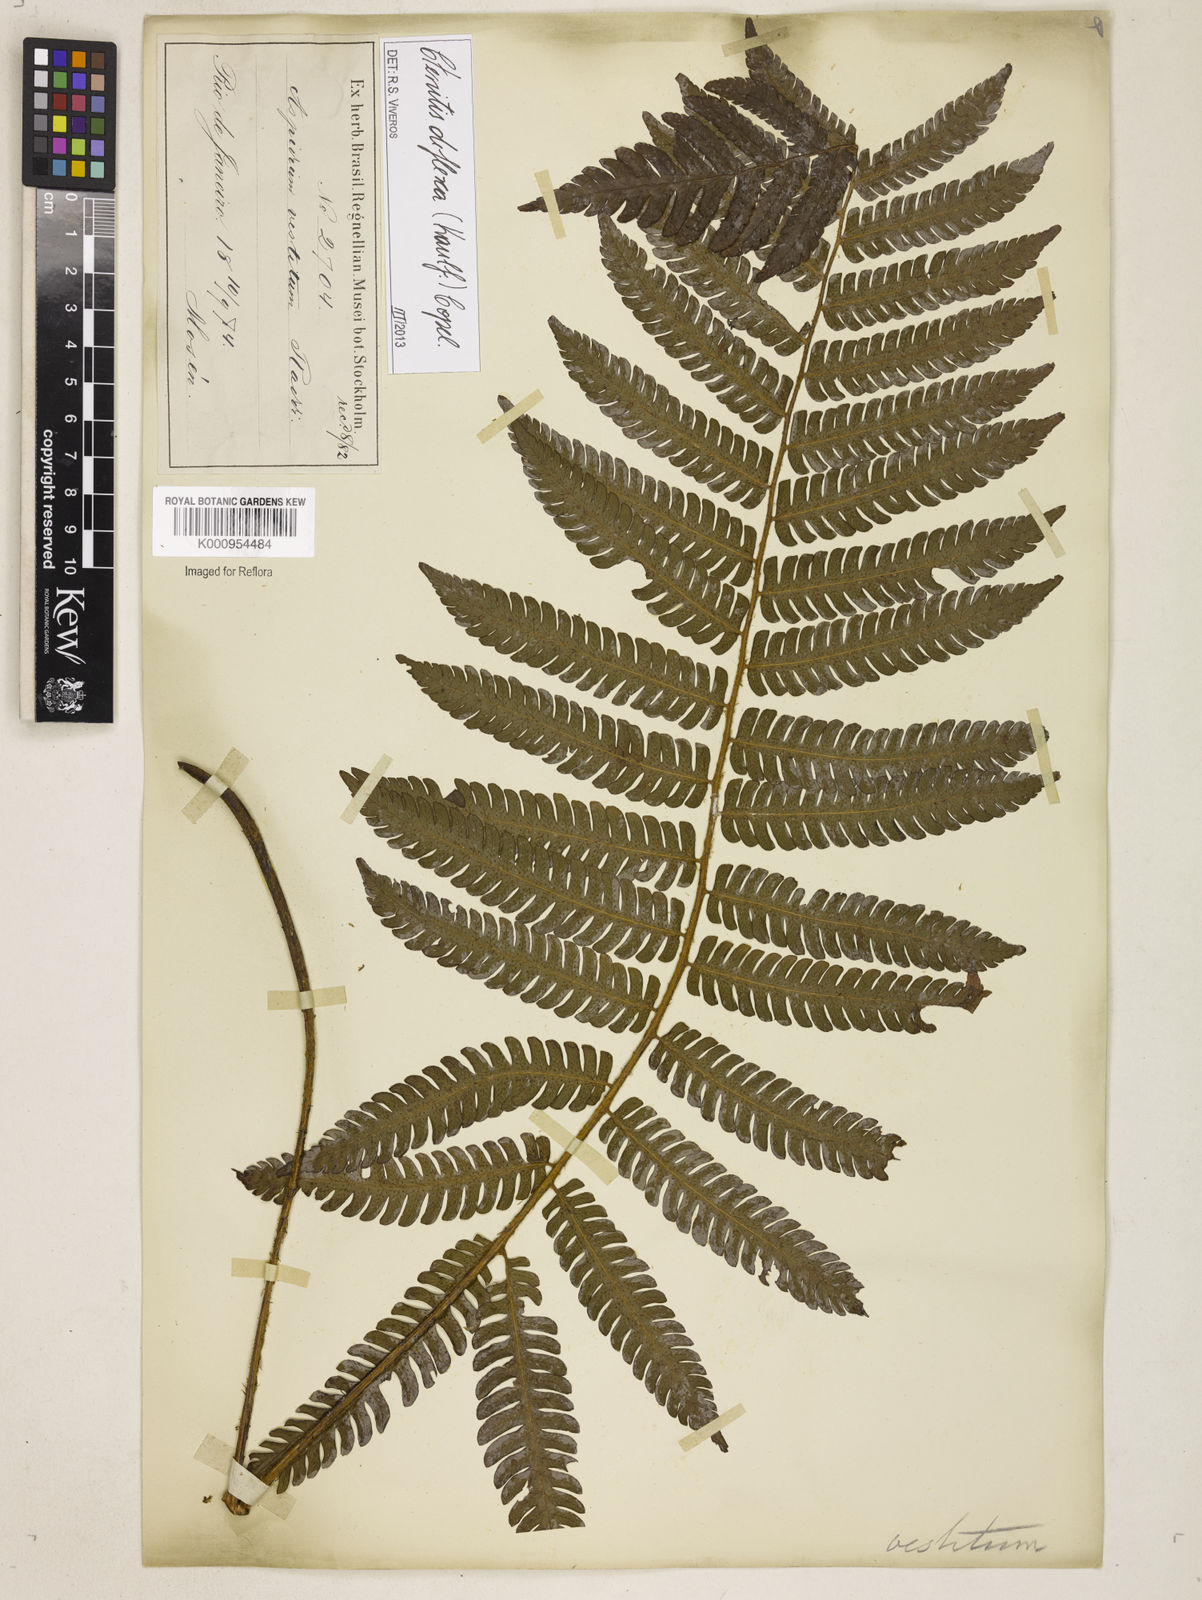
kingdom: Plantae
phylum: Tracheophyta
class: Polypodiopsida
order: Polypodiales
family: Dryopteridaceae
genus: Ctenitis
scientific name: Ctenitis deflexa
